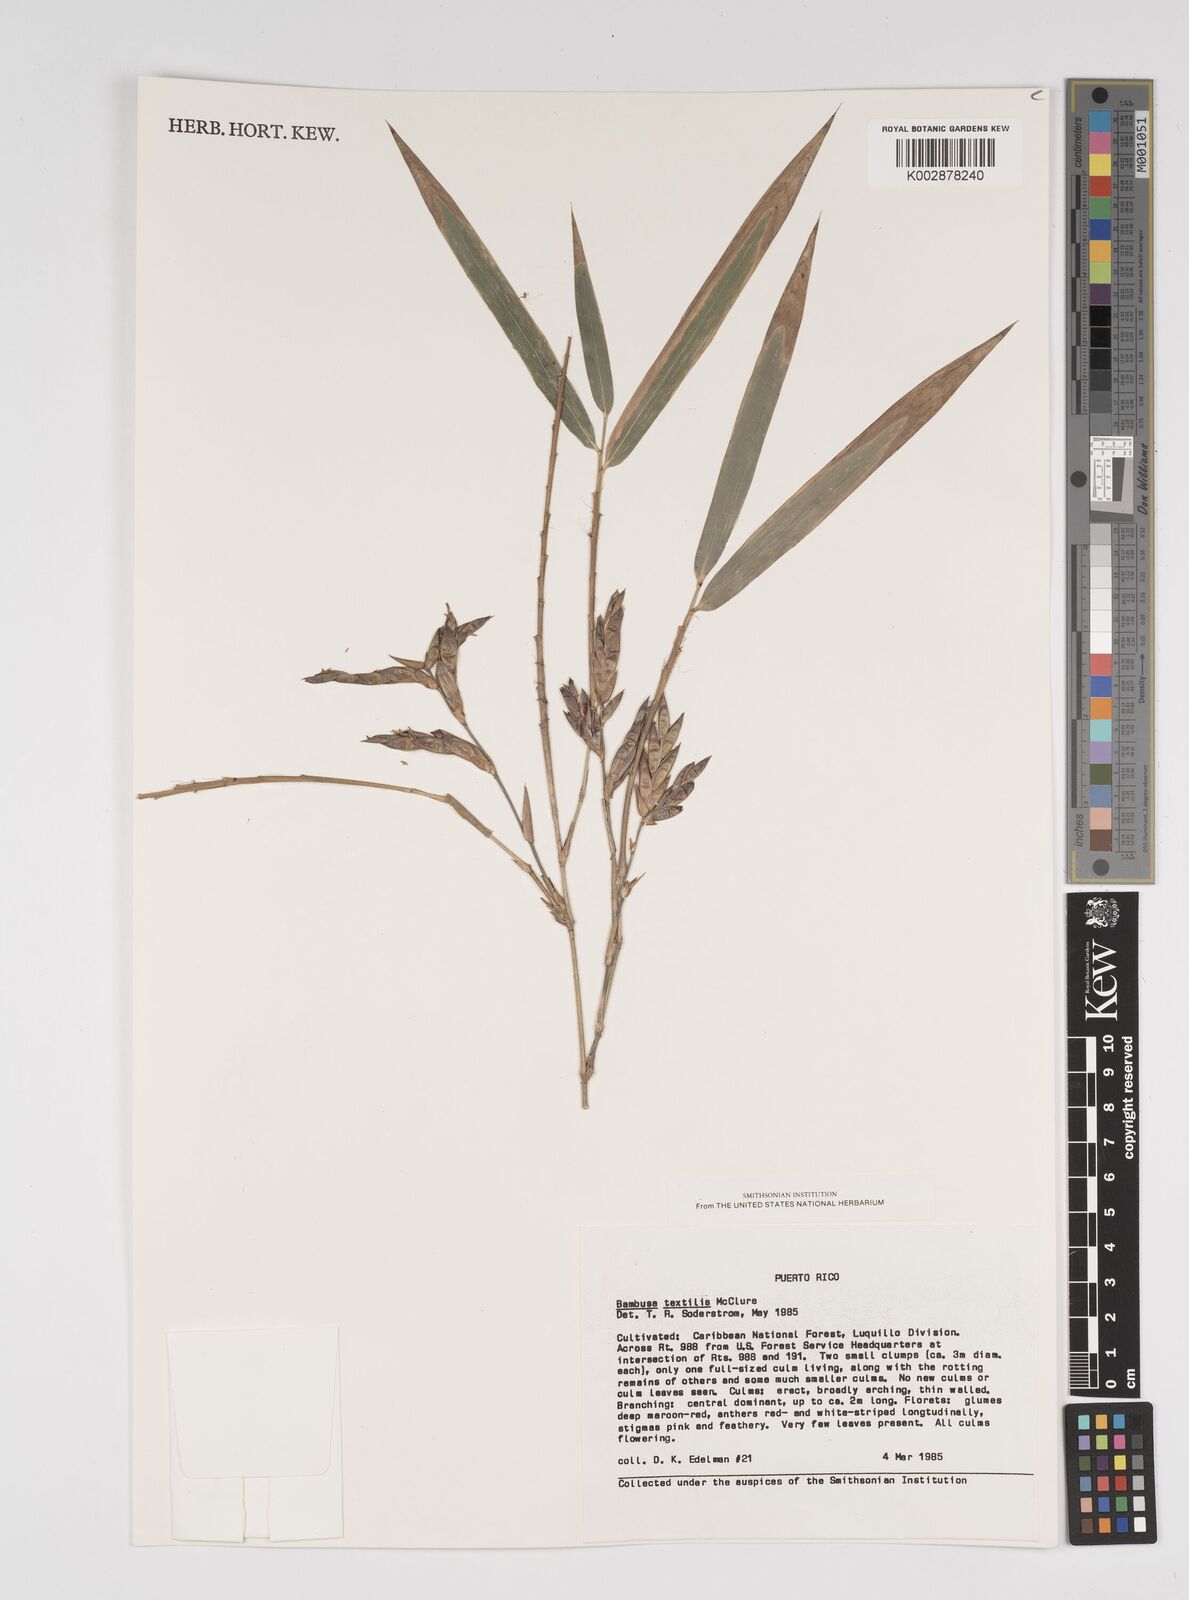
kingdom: Plantae
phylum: Tracheophyta
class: Liliopsida
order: Poales
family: Poaceae
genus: Bambusa
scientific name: Bambusa textilis
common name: Weaver's bamboo
